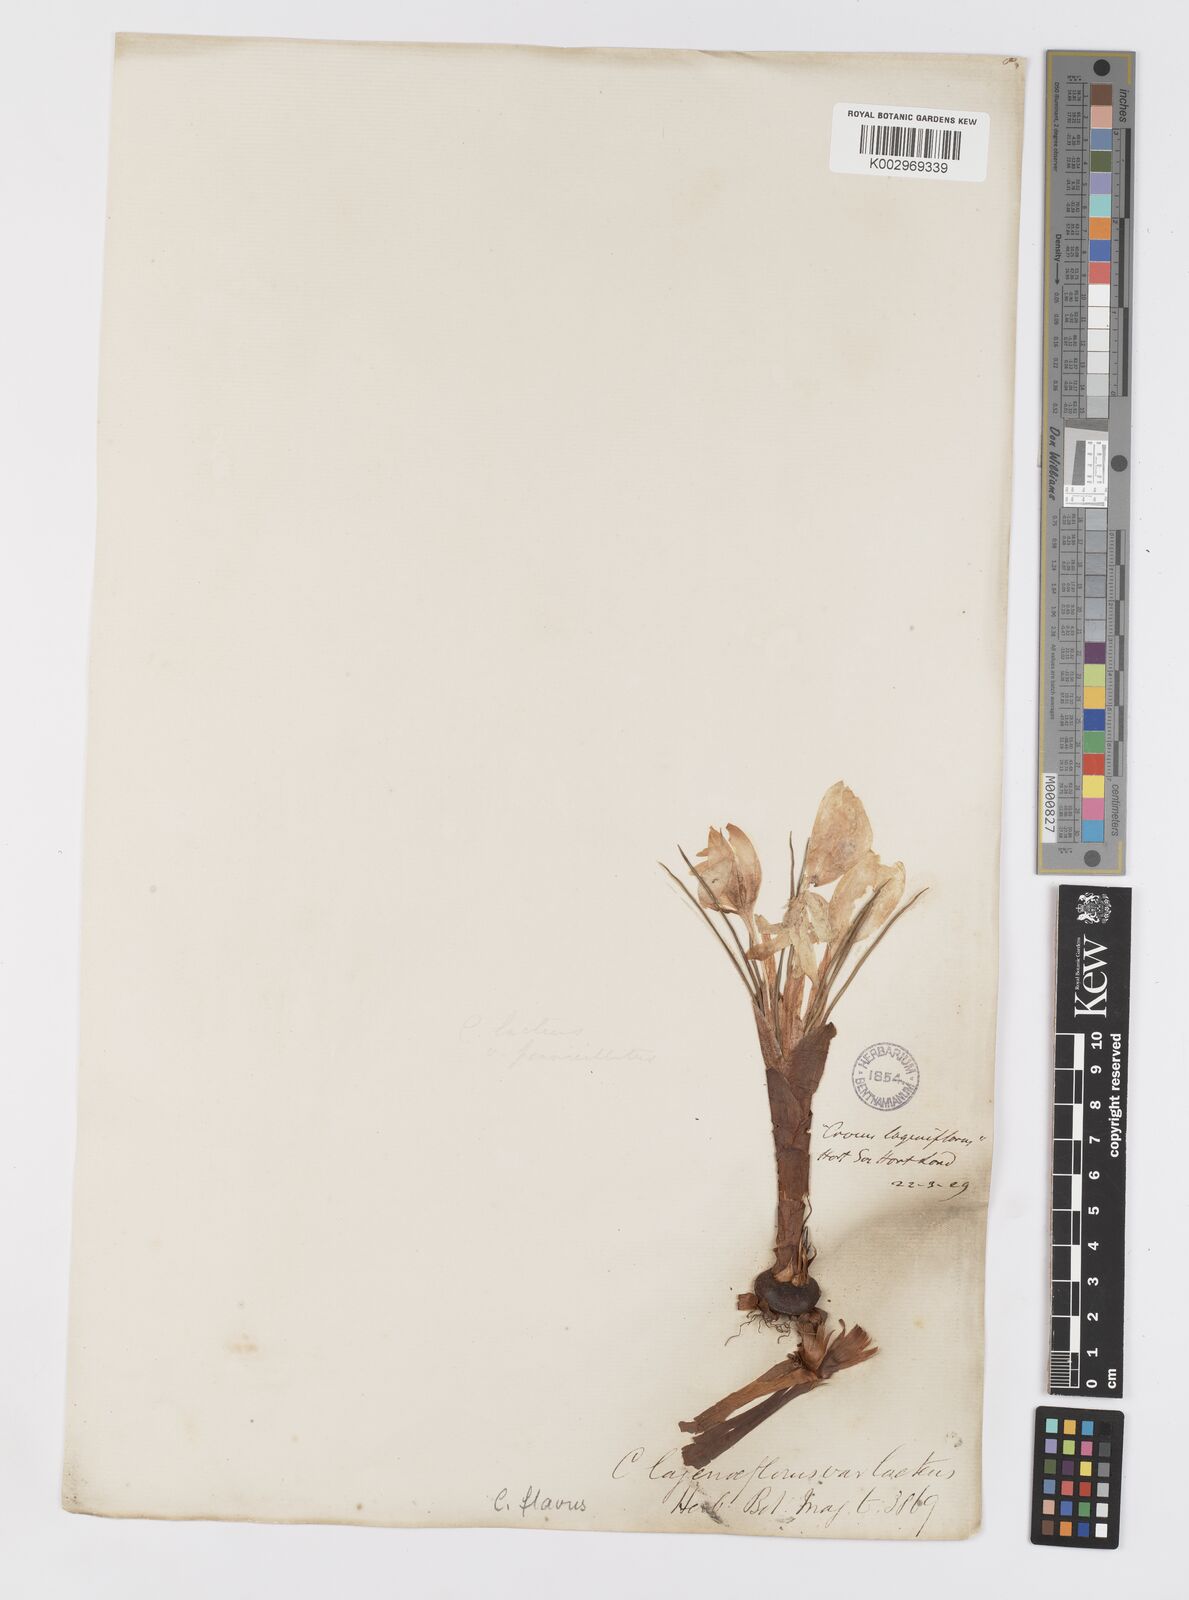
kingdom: Plantae
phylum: Tracheophyta
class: Liliopsida
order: Asparagales
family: Iridaceae
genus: Crocus
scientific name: Crocus flavus
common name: Yellow crocus
